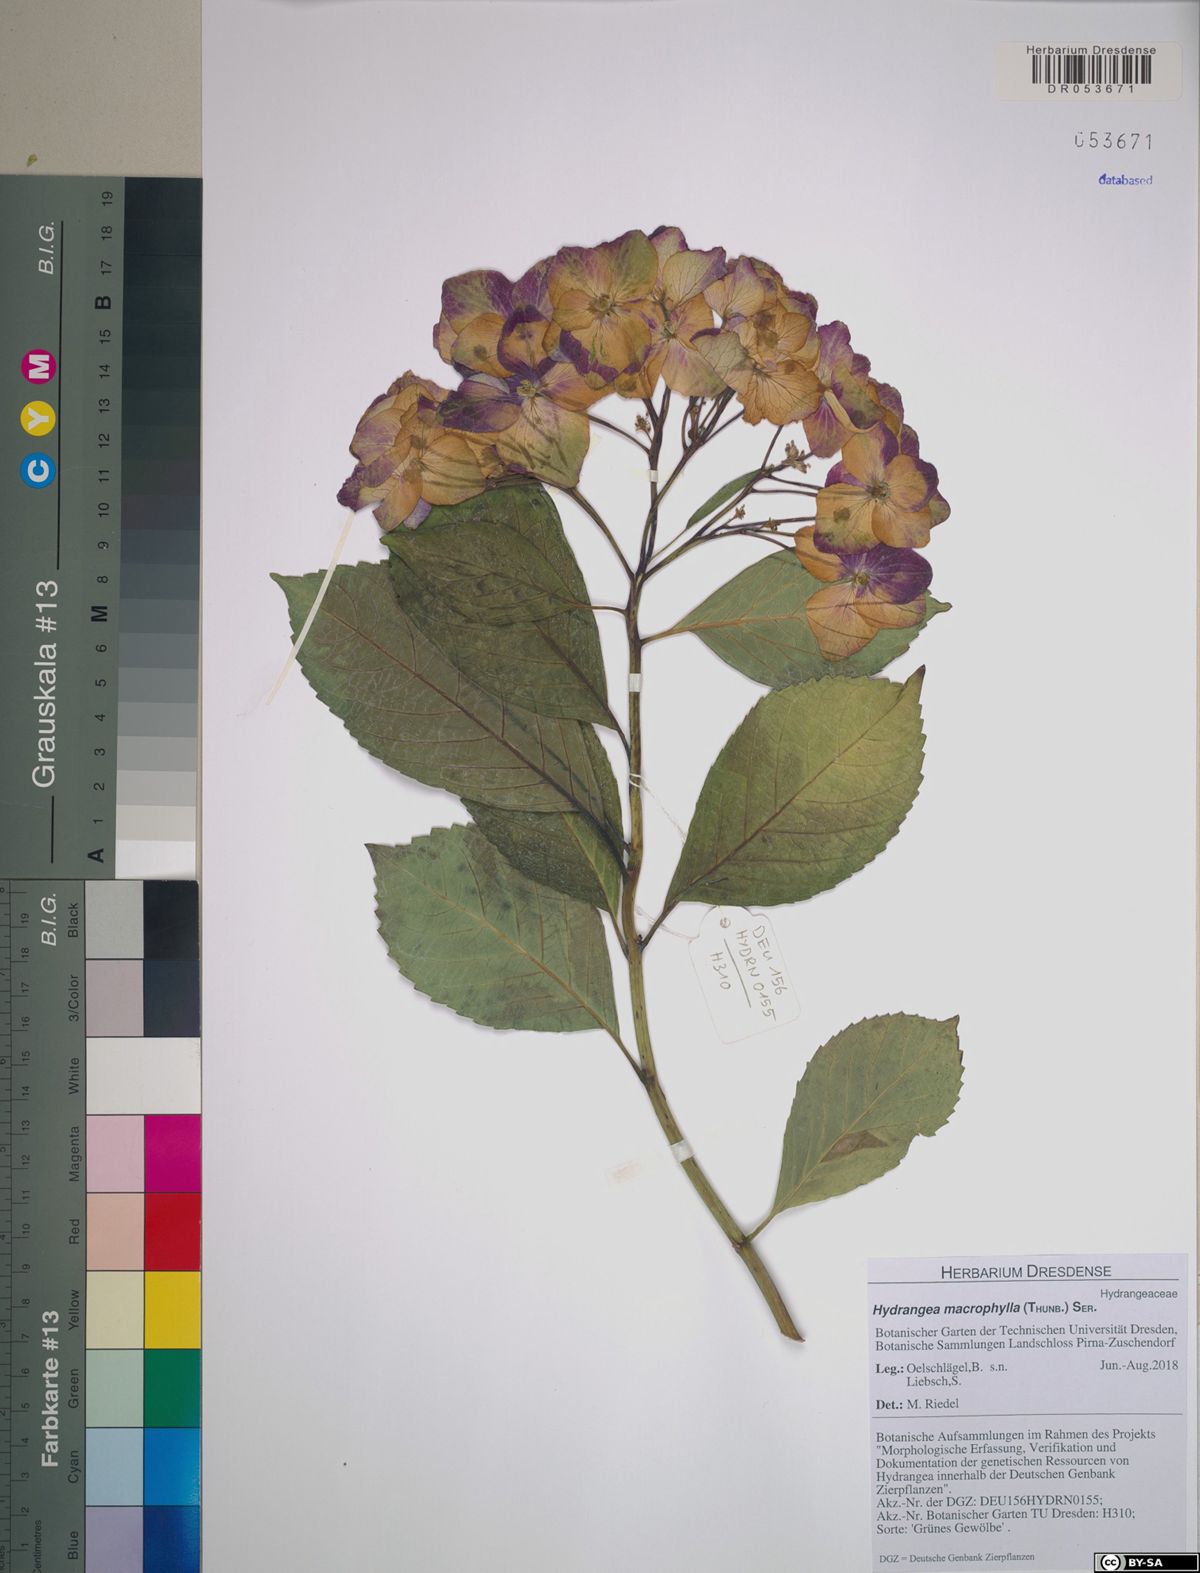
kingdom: Plantae
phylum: Tracheophyta
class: Magnoliopsida
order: Cornales
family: Hydrangeaceae
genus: Hydrangea
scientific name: Hydrangea macrophylla
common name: Hydrangea
